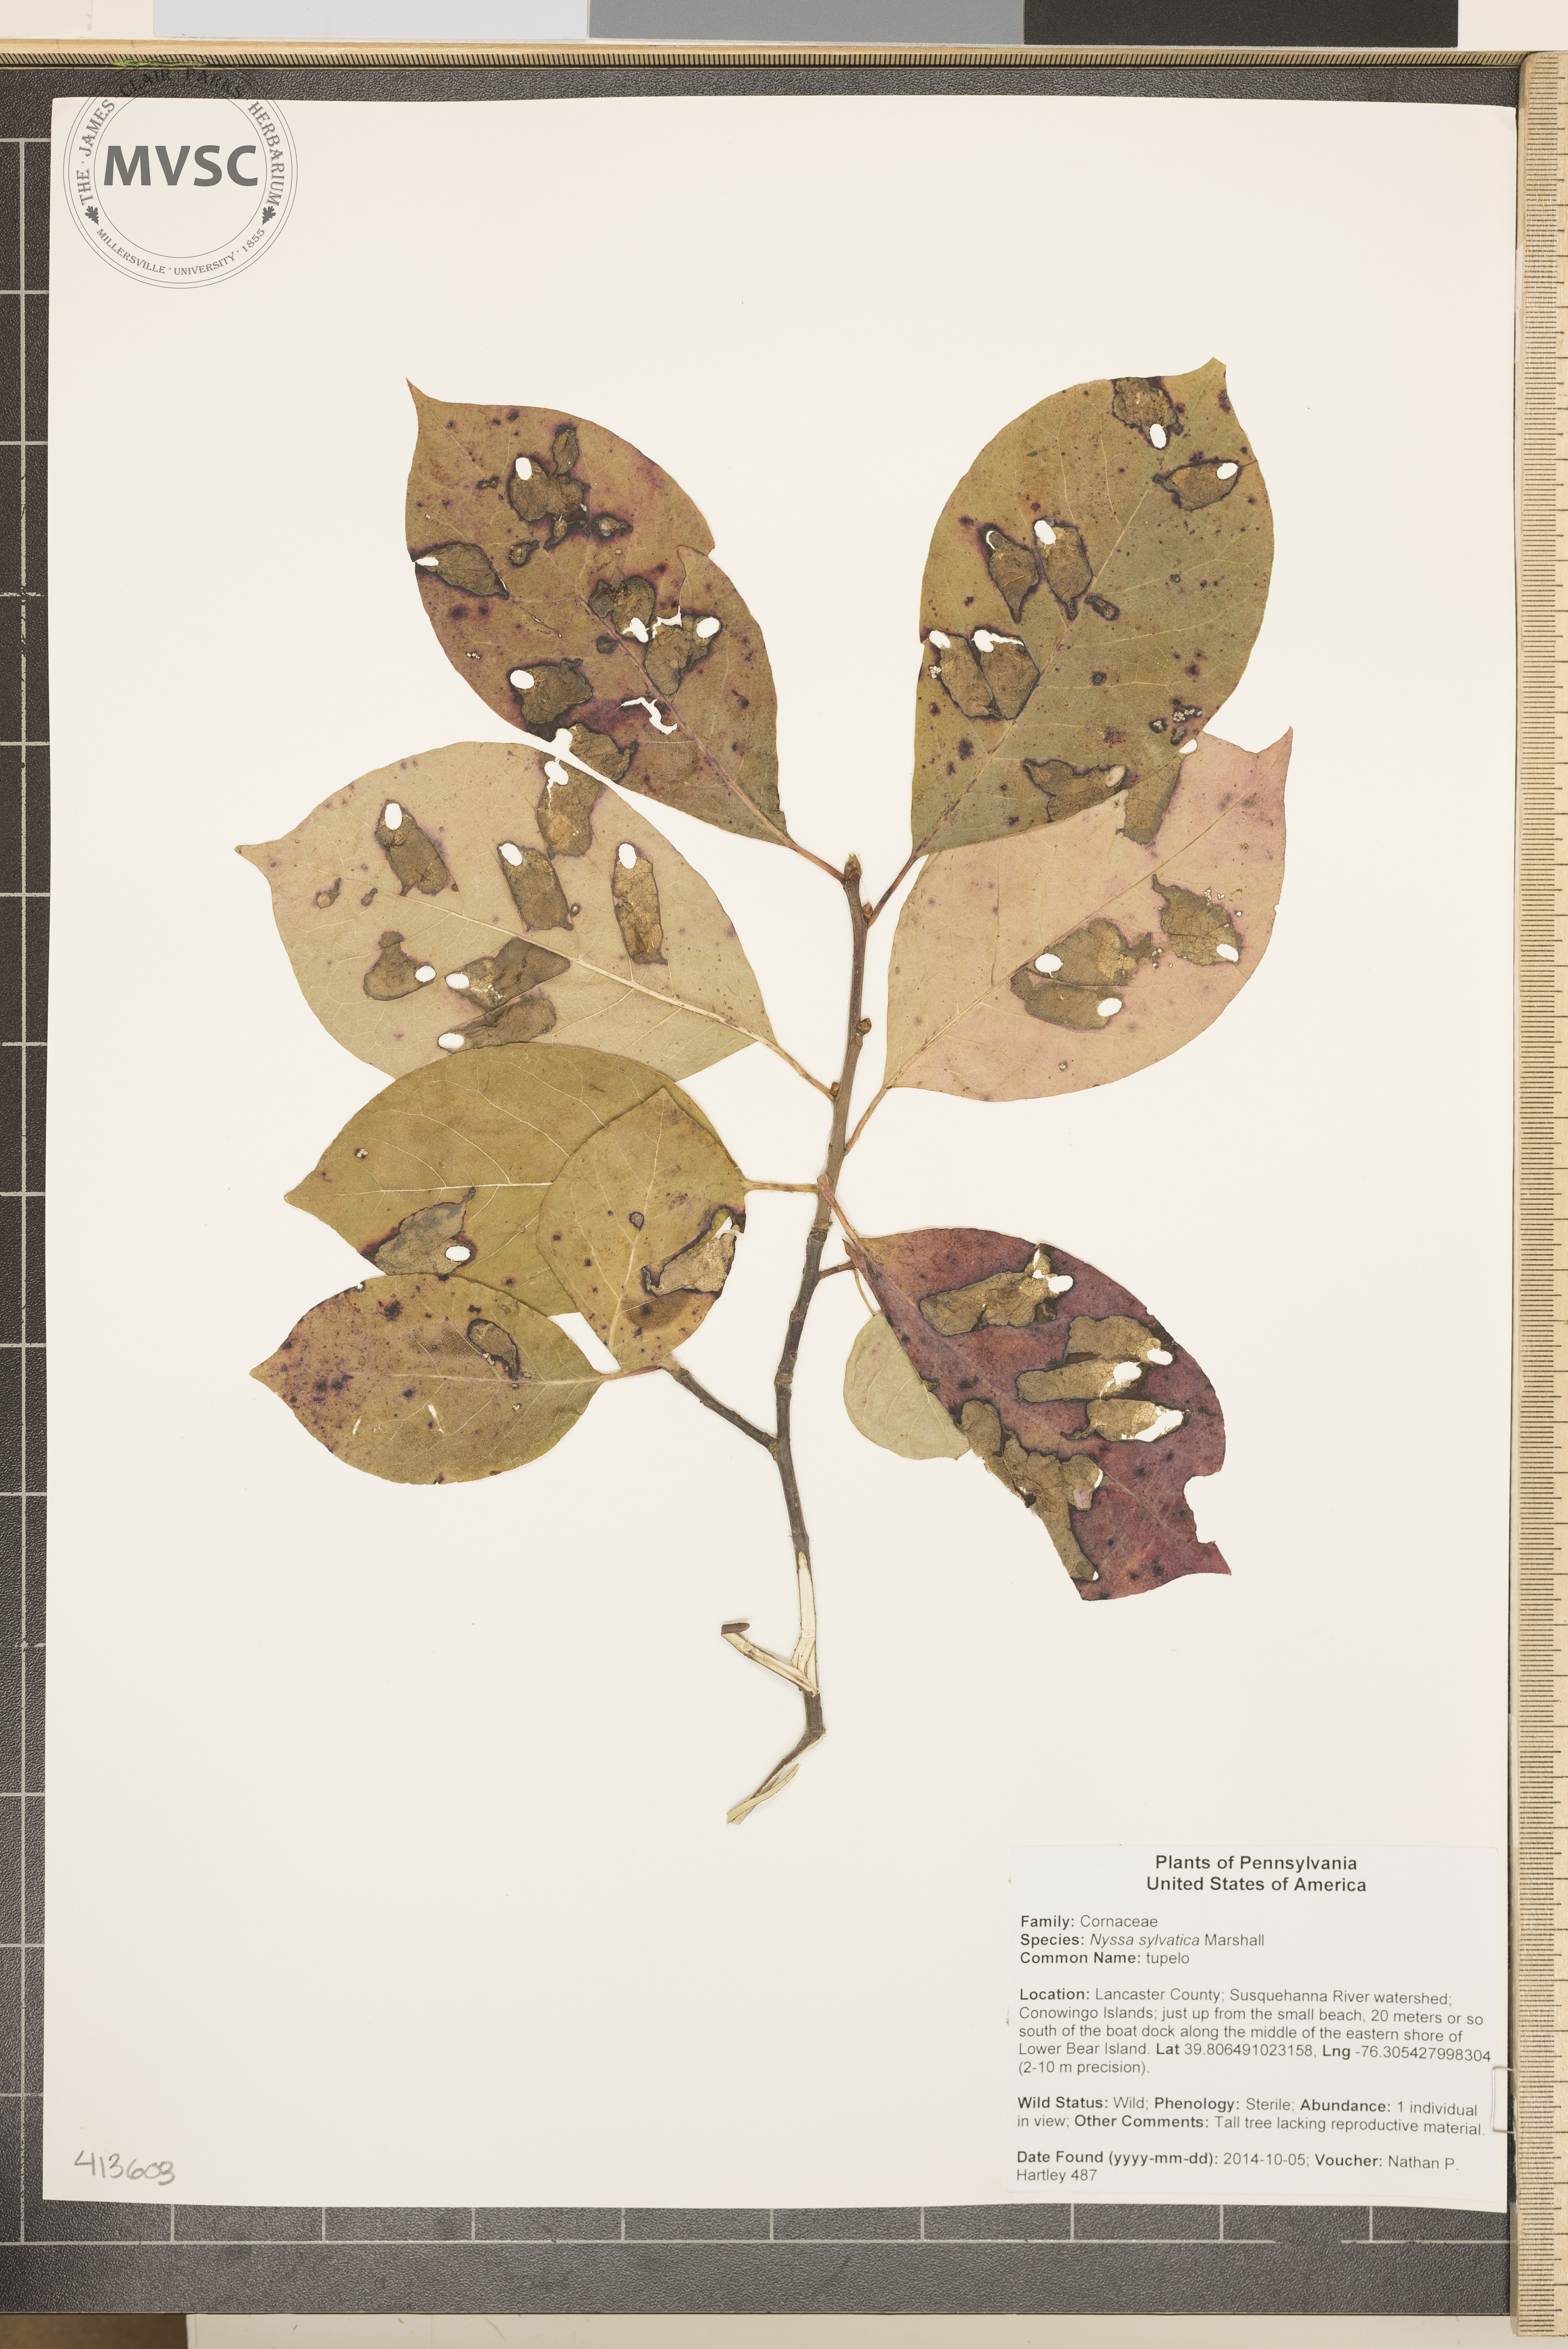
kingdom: Plantae
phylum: Tracheophyta
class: Magnoliopsida
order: Cornales
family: Nyssaceae
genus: Nyssa
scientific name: Nyssa sylvatica
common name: tupelo
